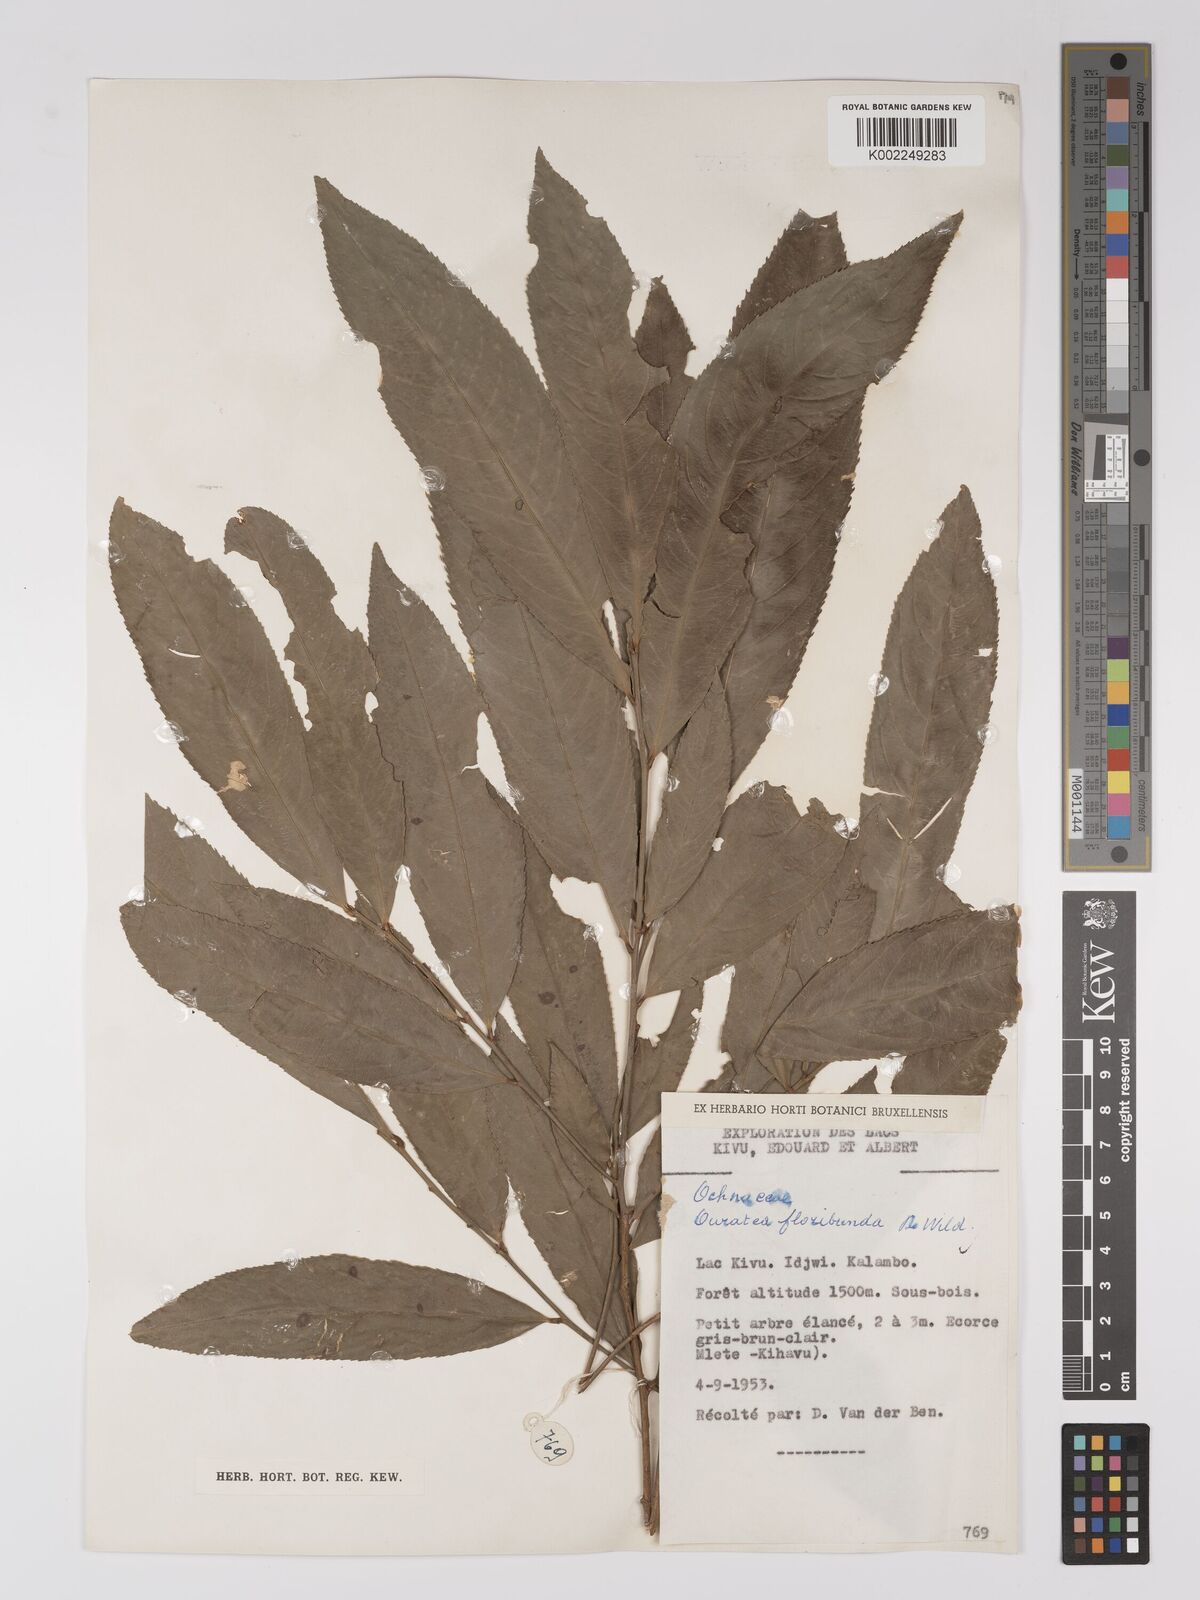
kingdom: Plantae
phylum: Tracheophyta
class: Magnoliopsida
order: Malpighiales
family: Ochnaceae
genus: Campylospermum
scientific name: Campylospermum likimiense
